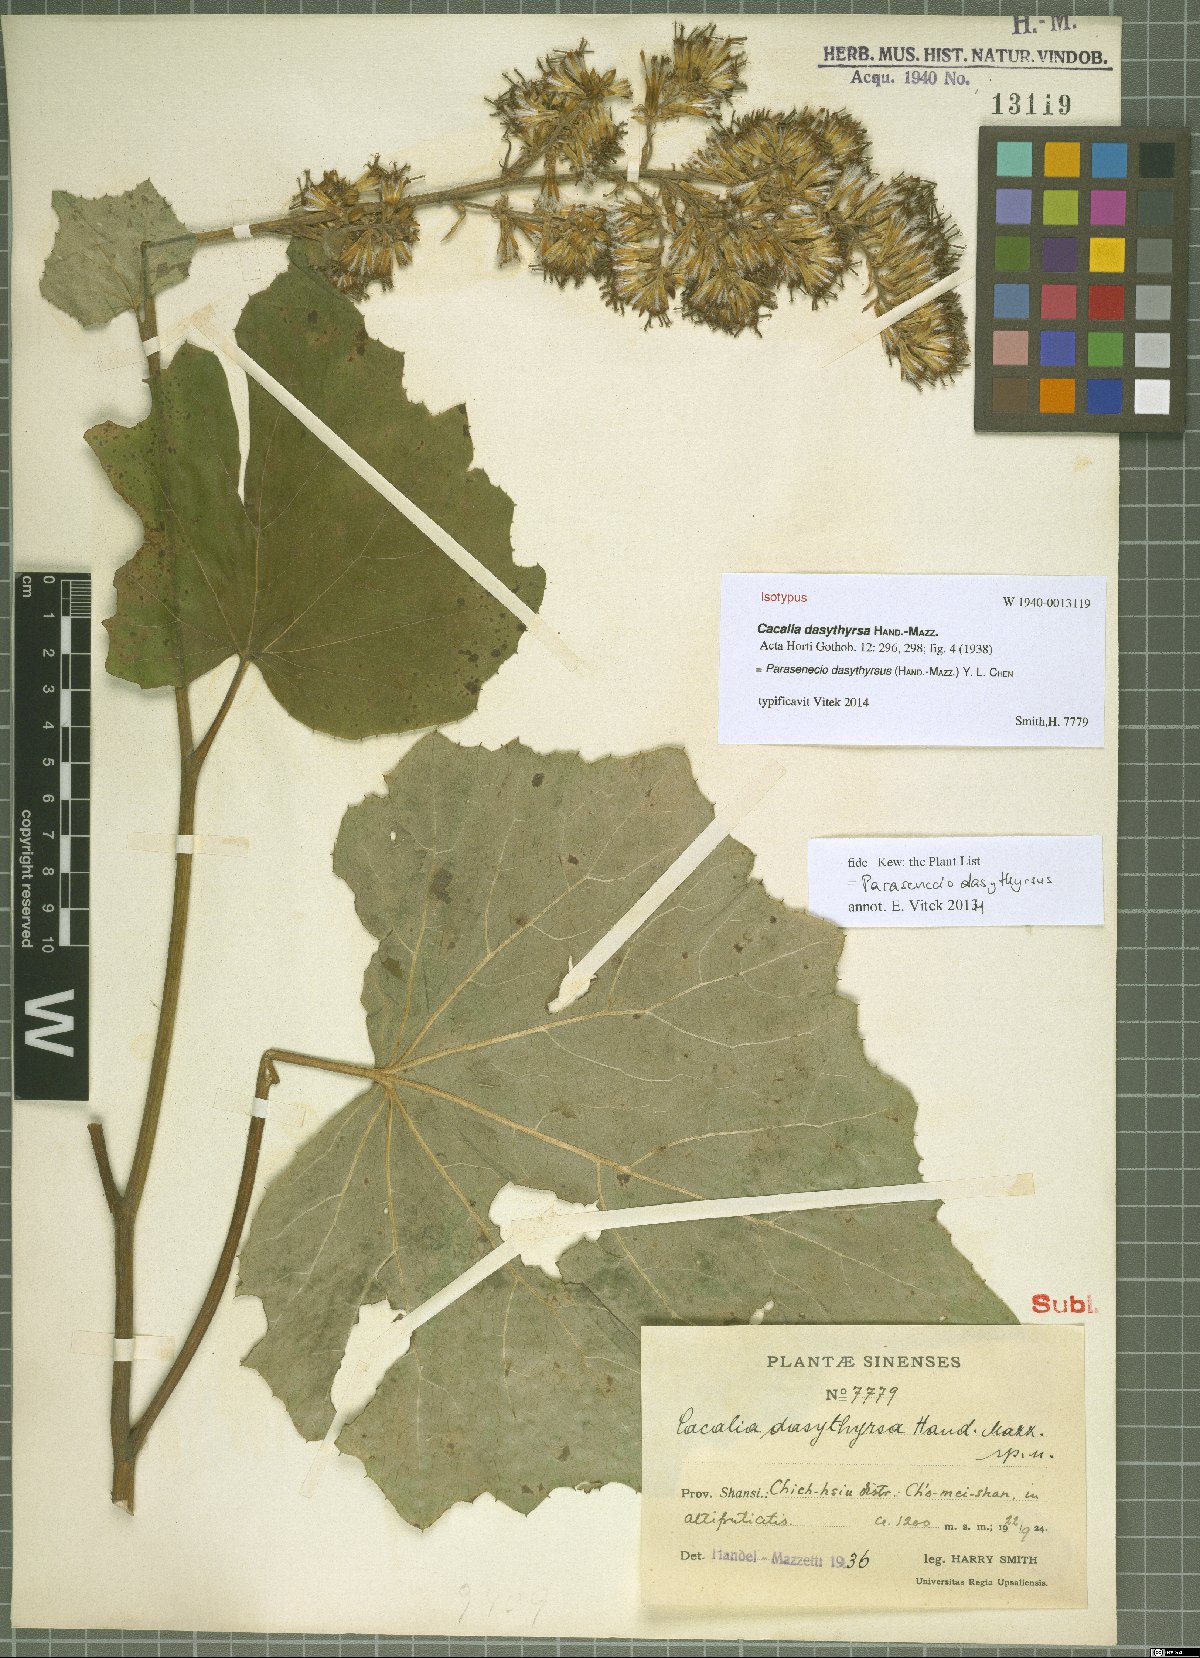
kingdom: Plantae
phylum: Tracheophyta
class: Magnoliopsida
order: Asterales
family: Asteraceae
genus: Parasenecio
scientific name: Parasenecio dasythyrsus
